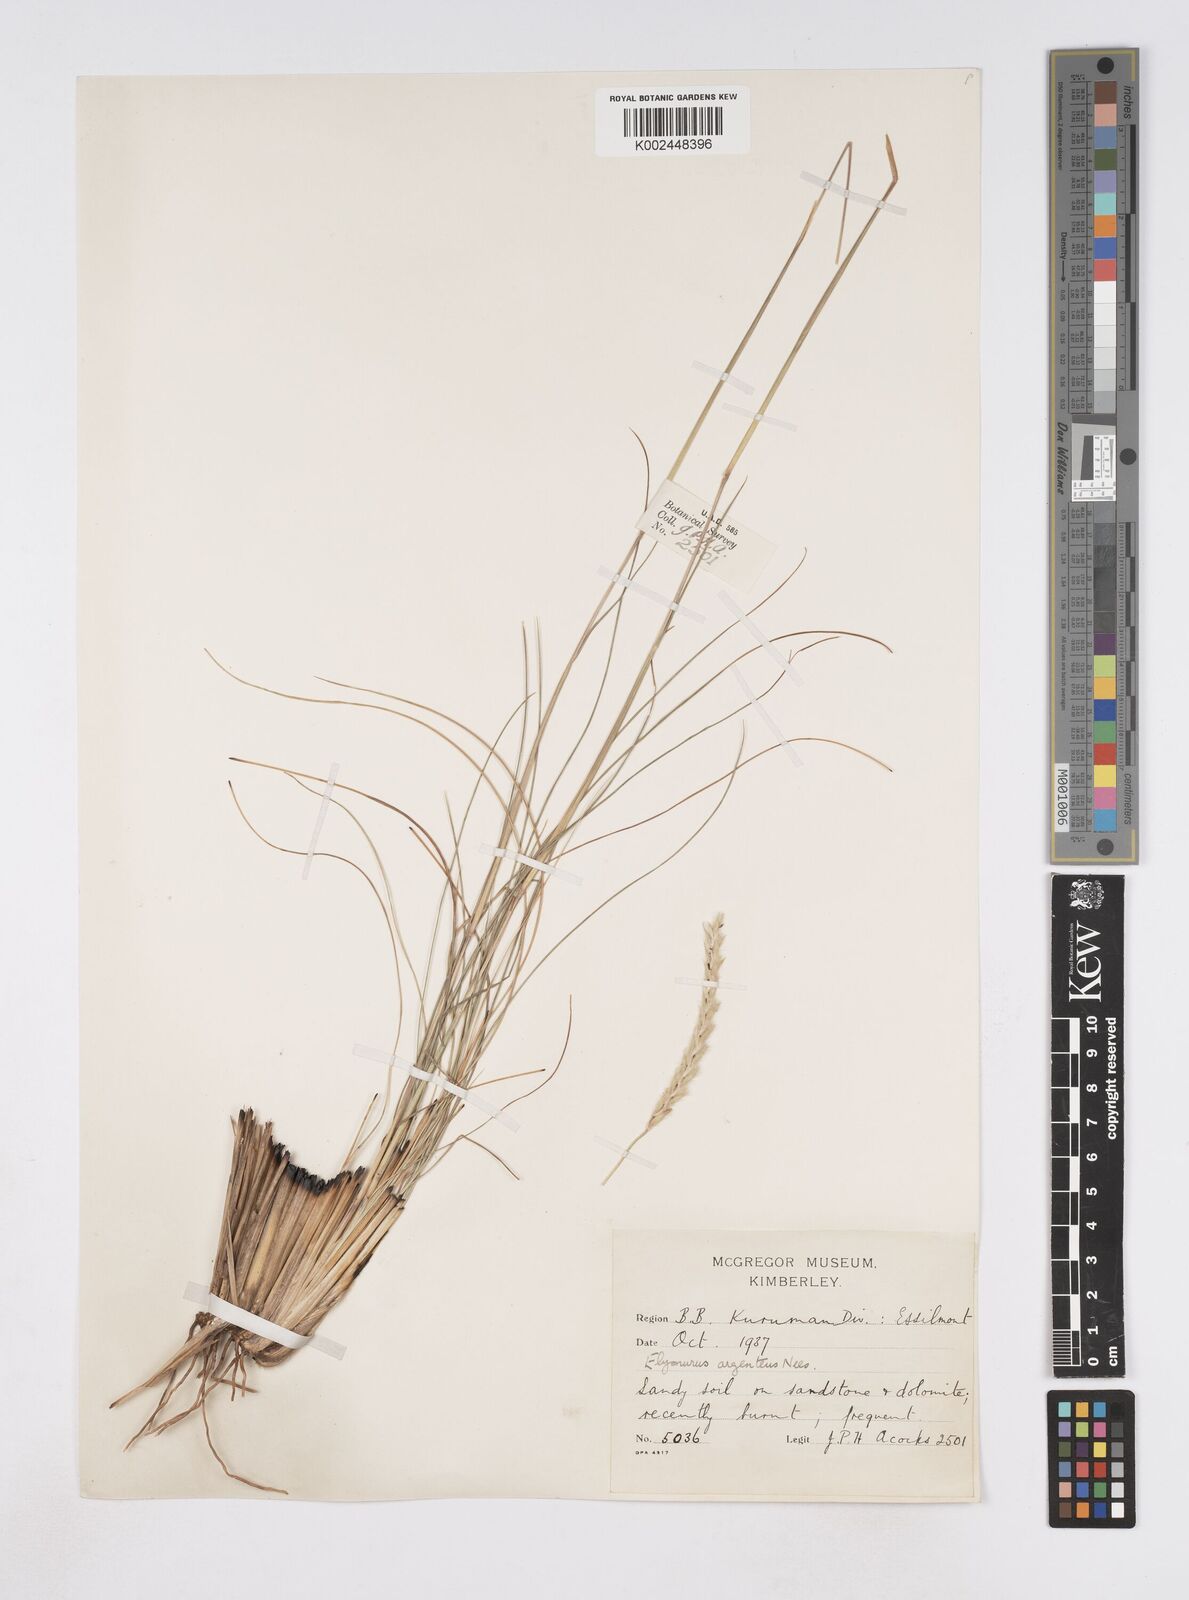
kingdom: Plantae
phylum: Tracheophyta
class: Liliopsida
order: Poales
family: Poaceae
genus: Elionurus
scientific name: Elionurus muticus
